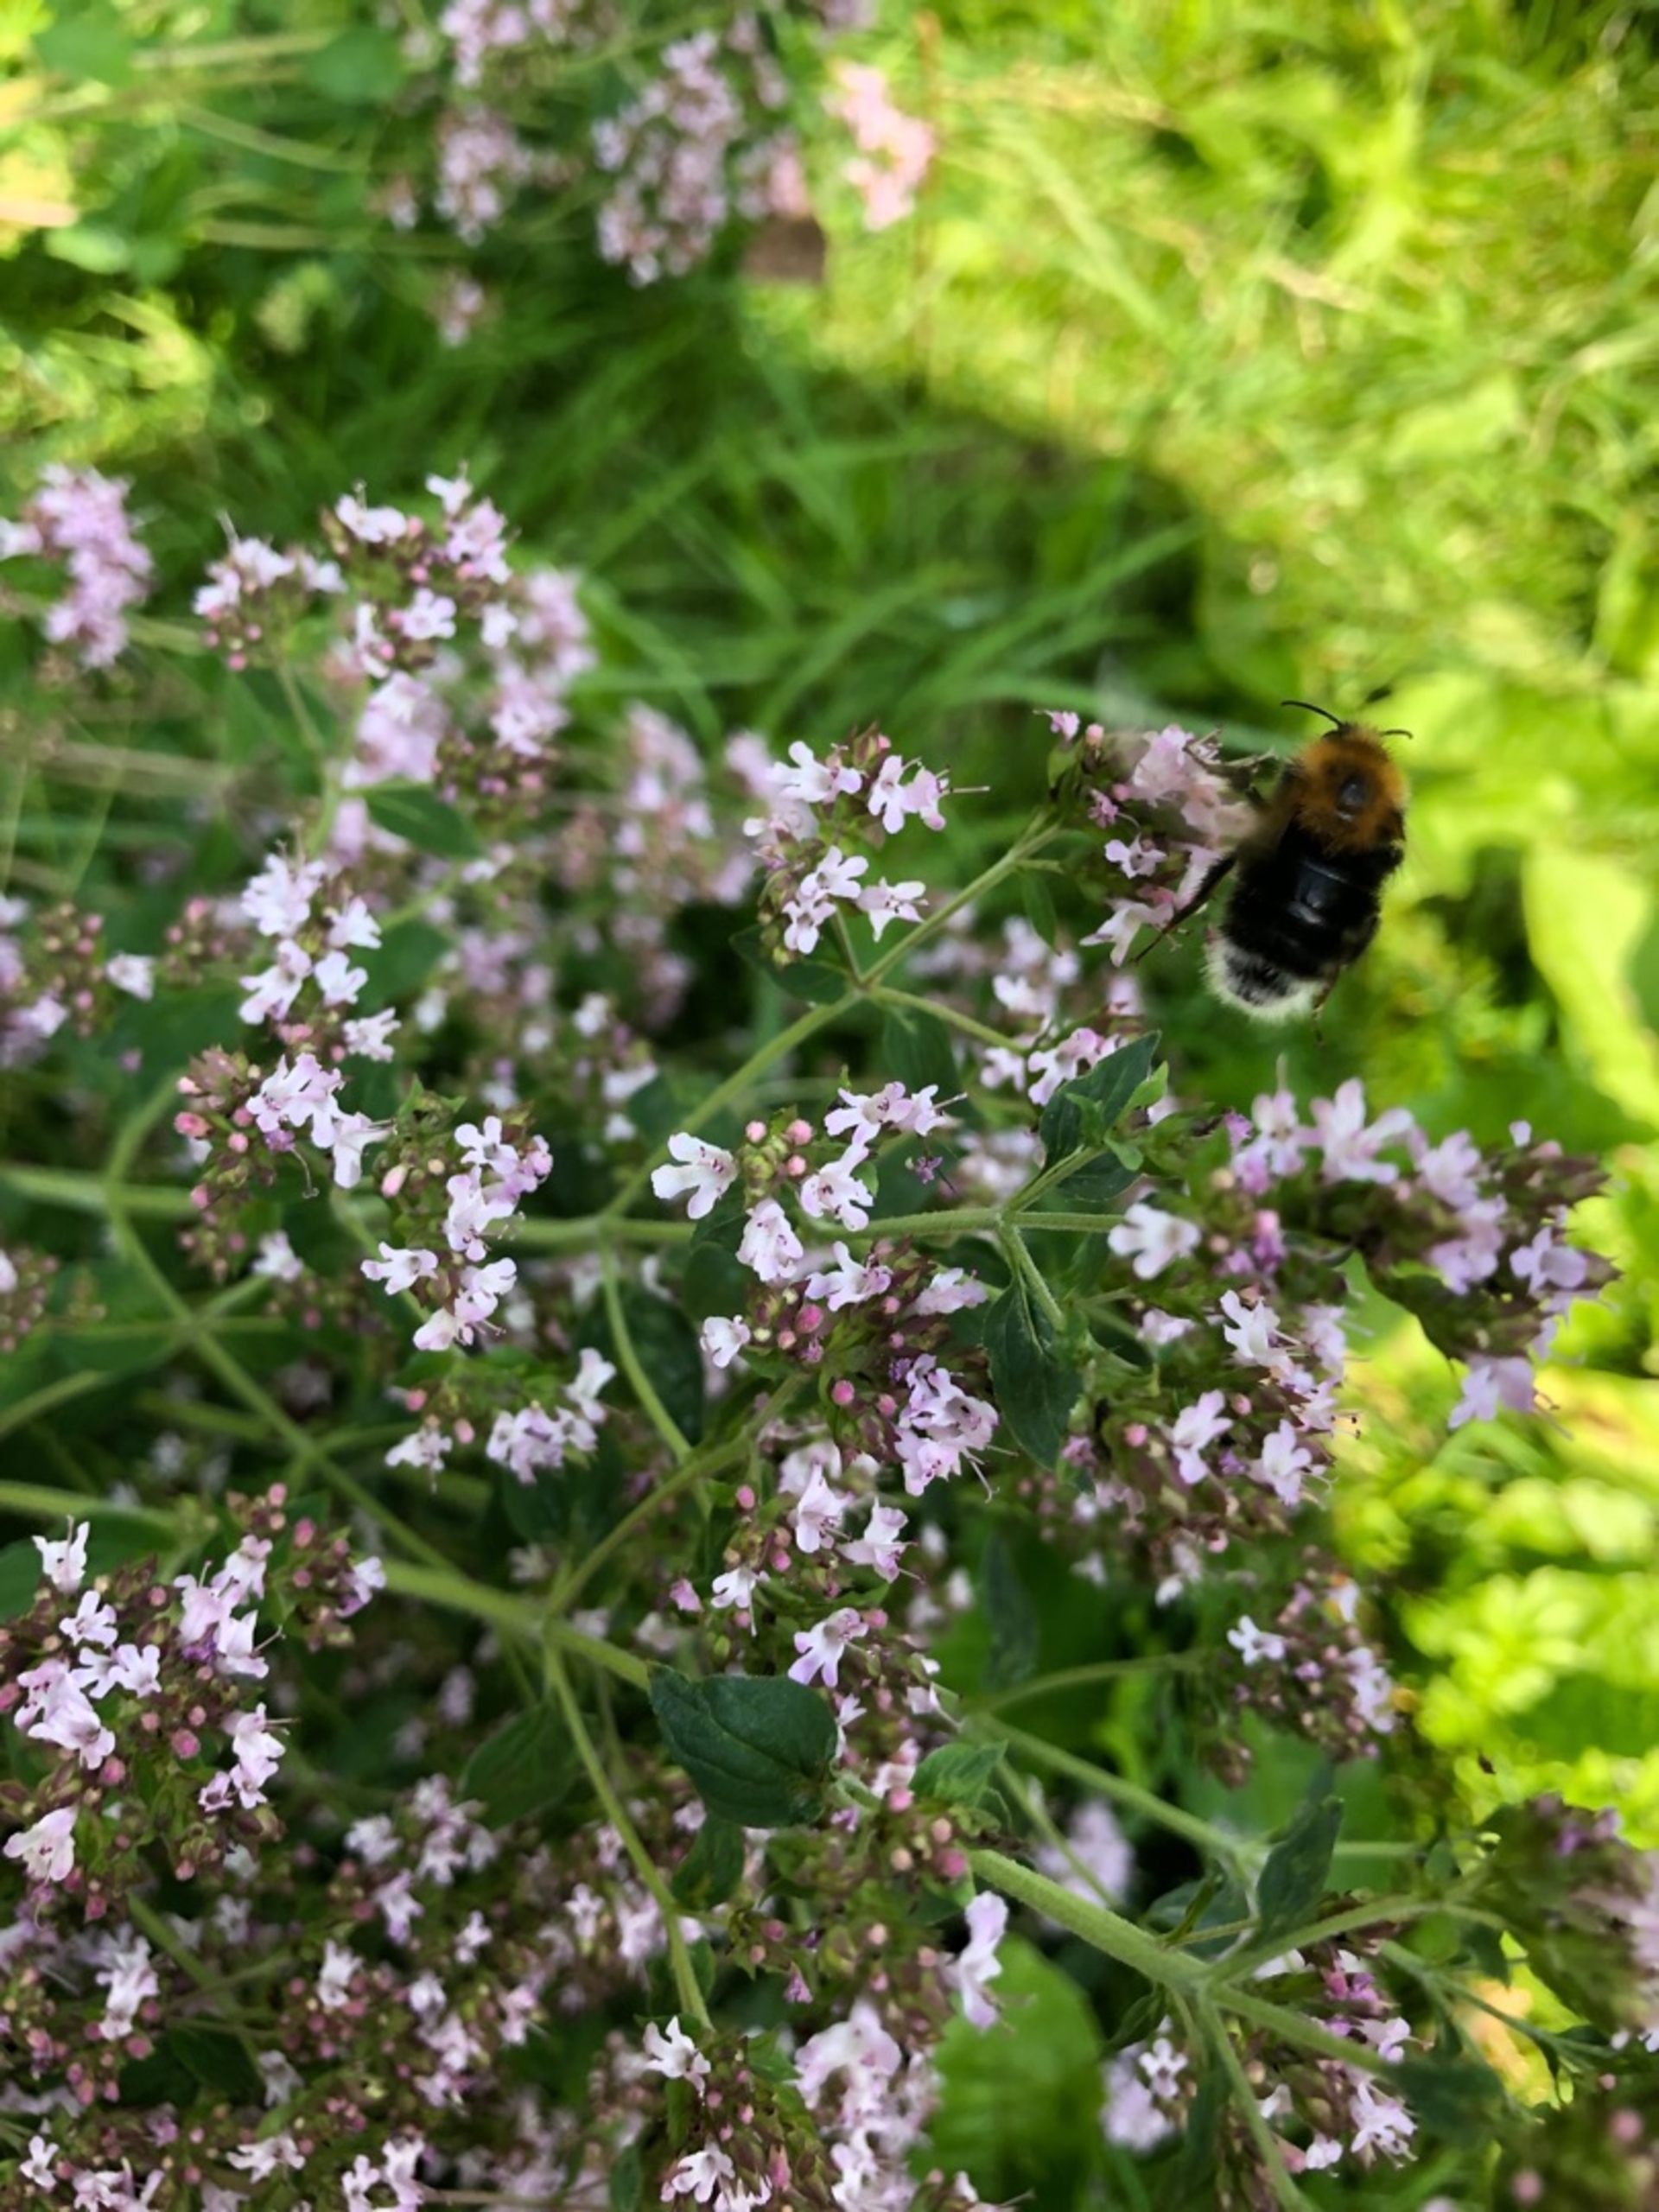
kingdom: Animalia
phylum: Arthropoda
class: Insecta
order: Hymenoptera
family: Apidae
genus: Bombus
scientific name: Bombus hypnorum
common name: Hushumle
